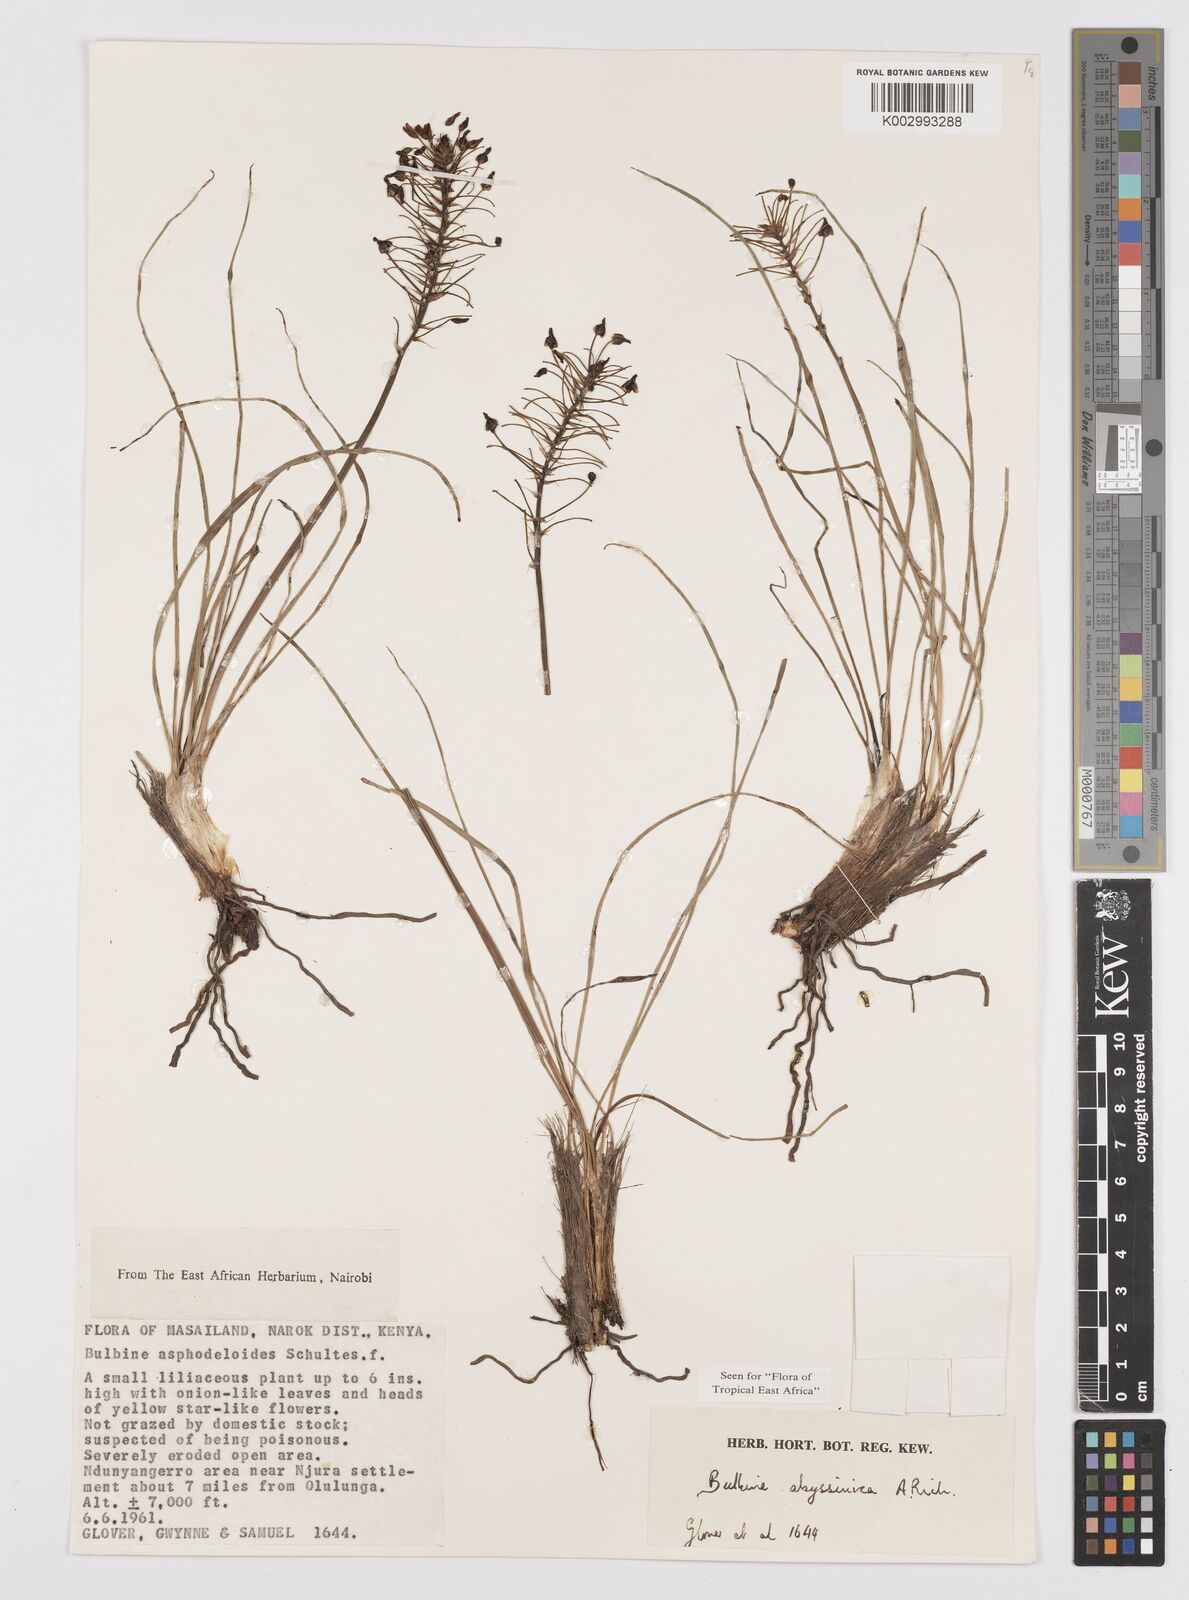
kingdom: Plantae
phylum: Tracheophyta
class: Liliopsida
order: Asparagales
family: Asphodelaceae
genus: Bulbine
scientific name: Bulbine abyssinica
